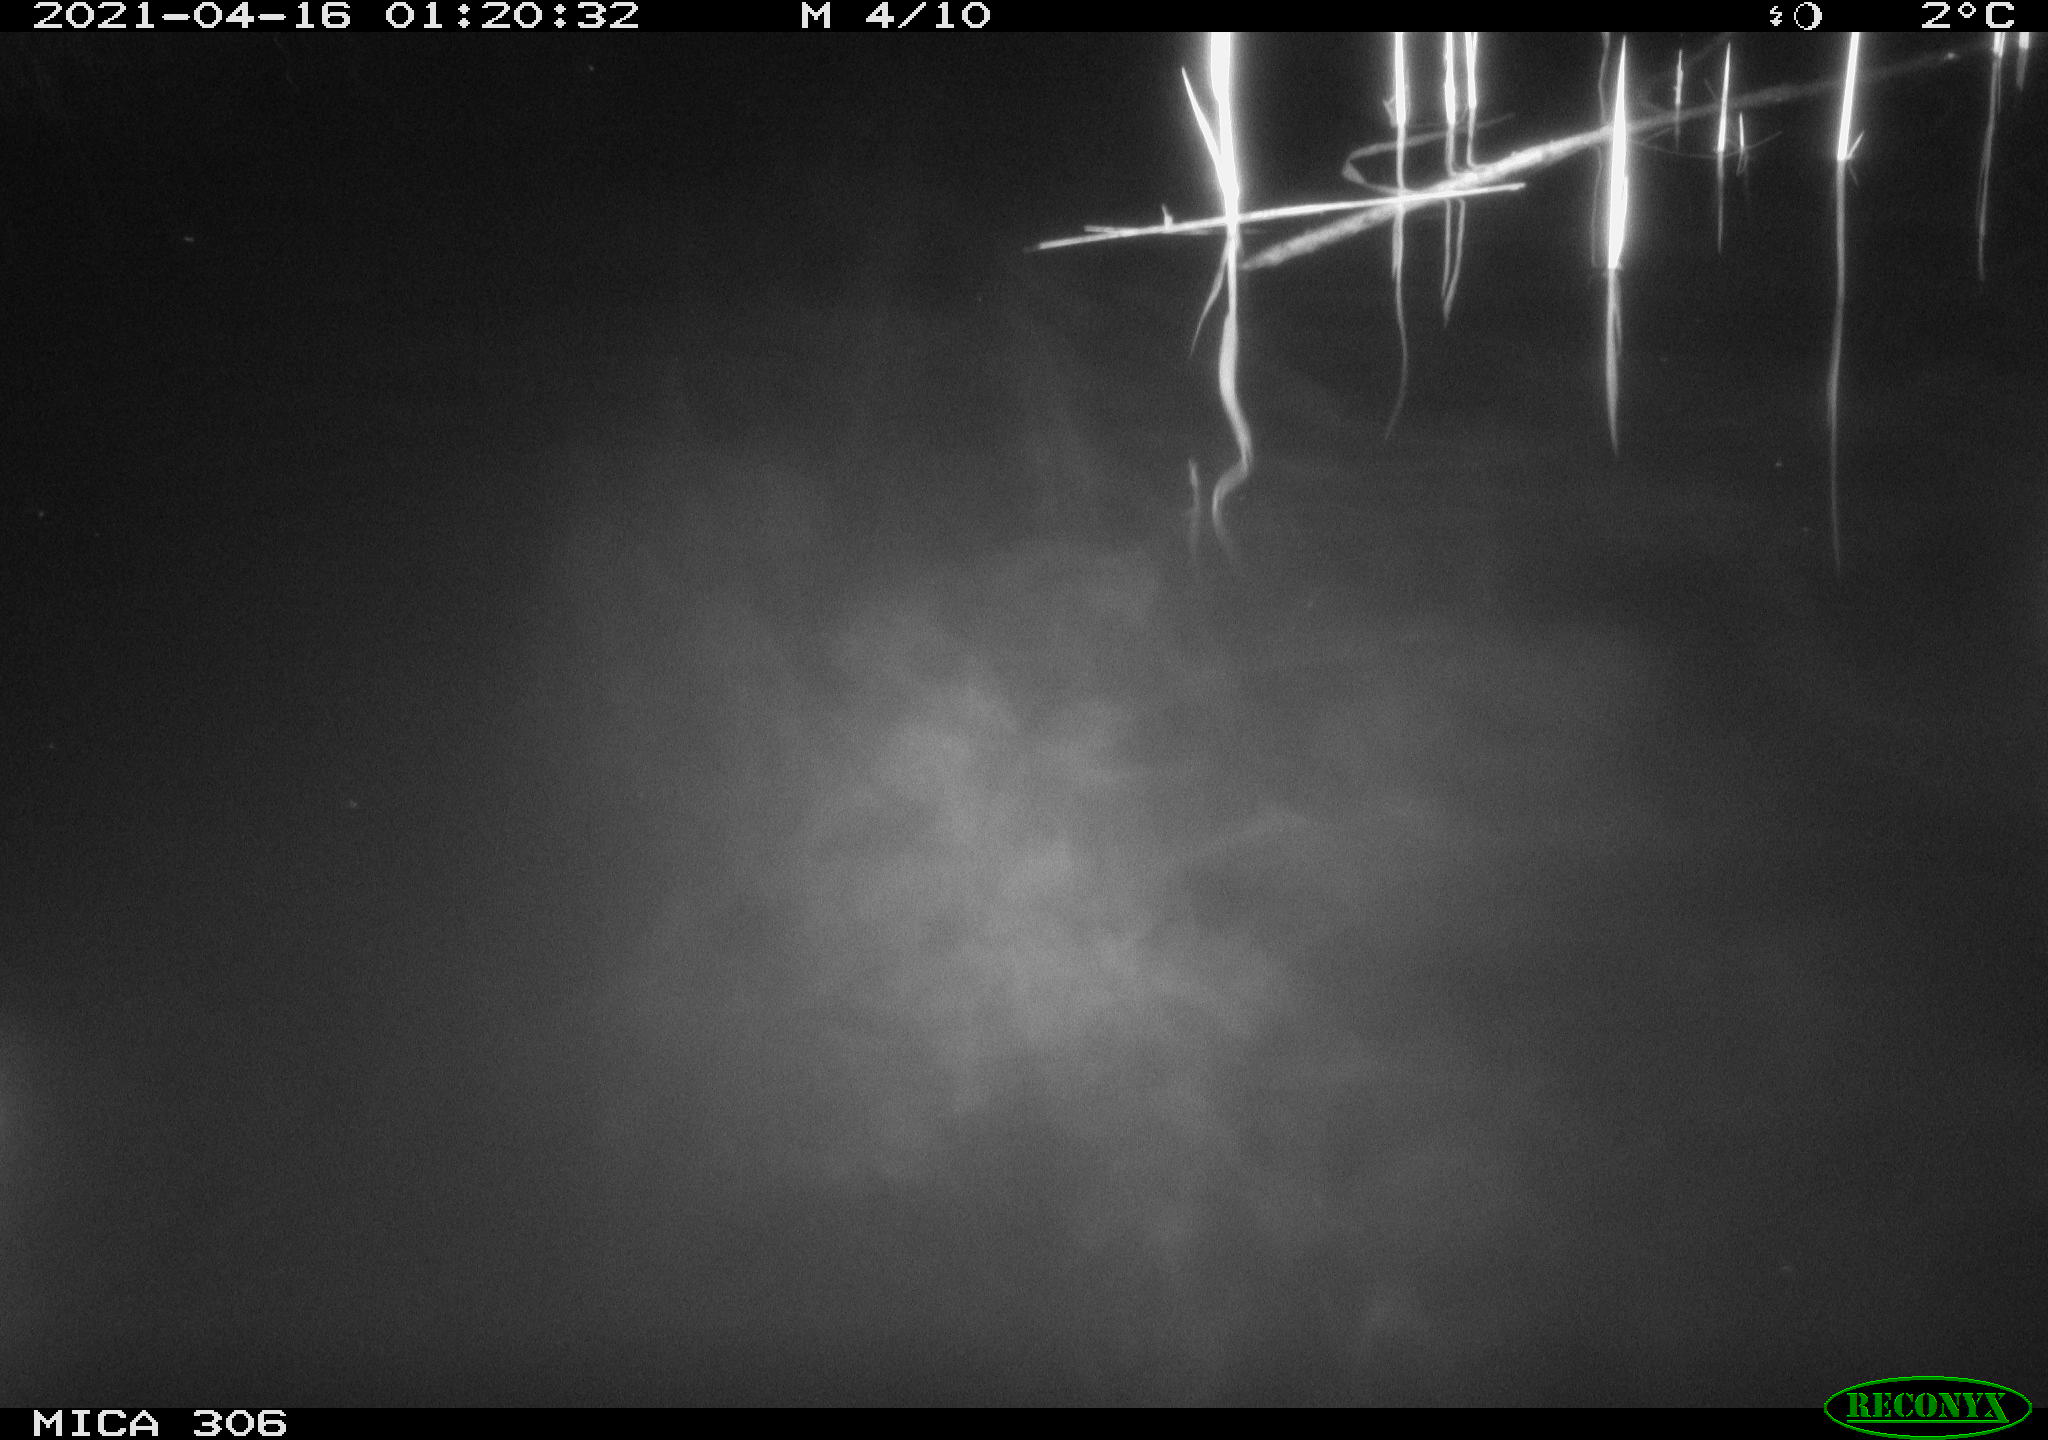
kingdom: Animalia
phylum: Chordata
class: Aves
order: Anseriformes
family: Anatidae
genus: Anas
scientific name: Anas platyrhynchos
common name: Mallard
